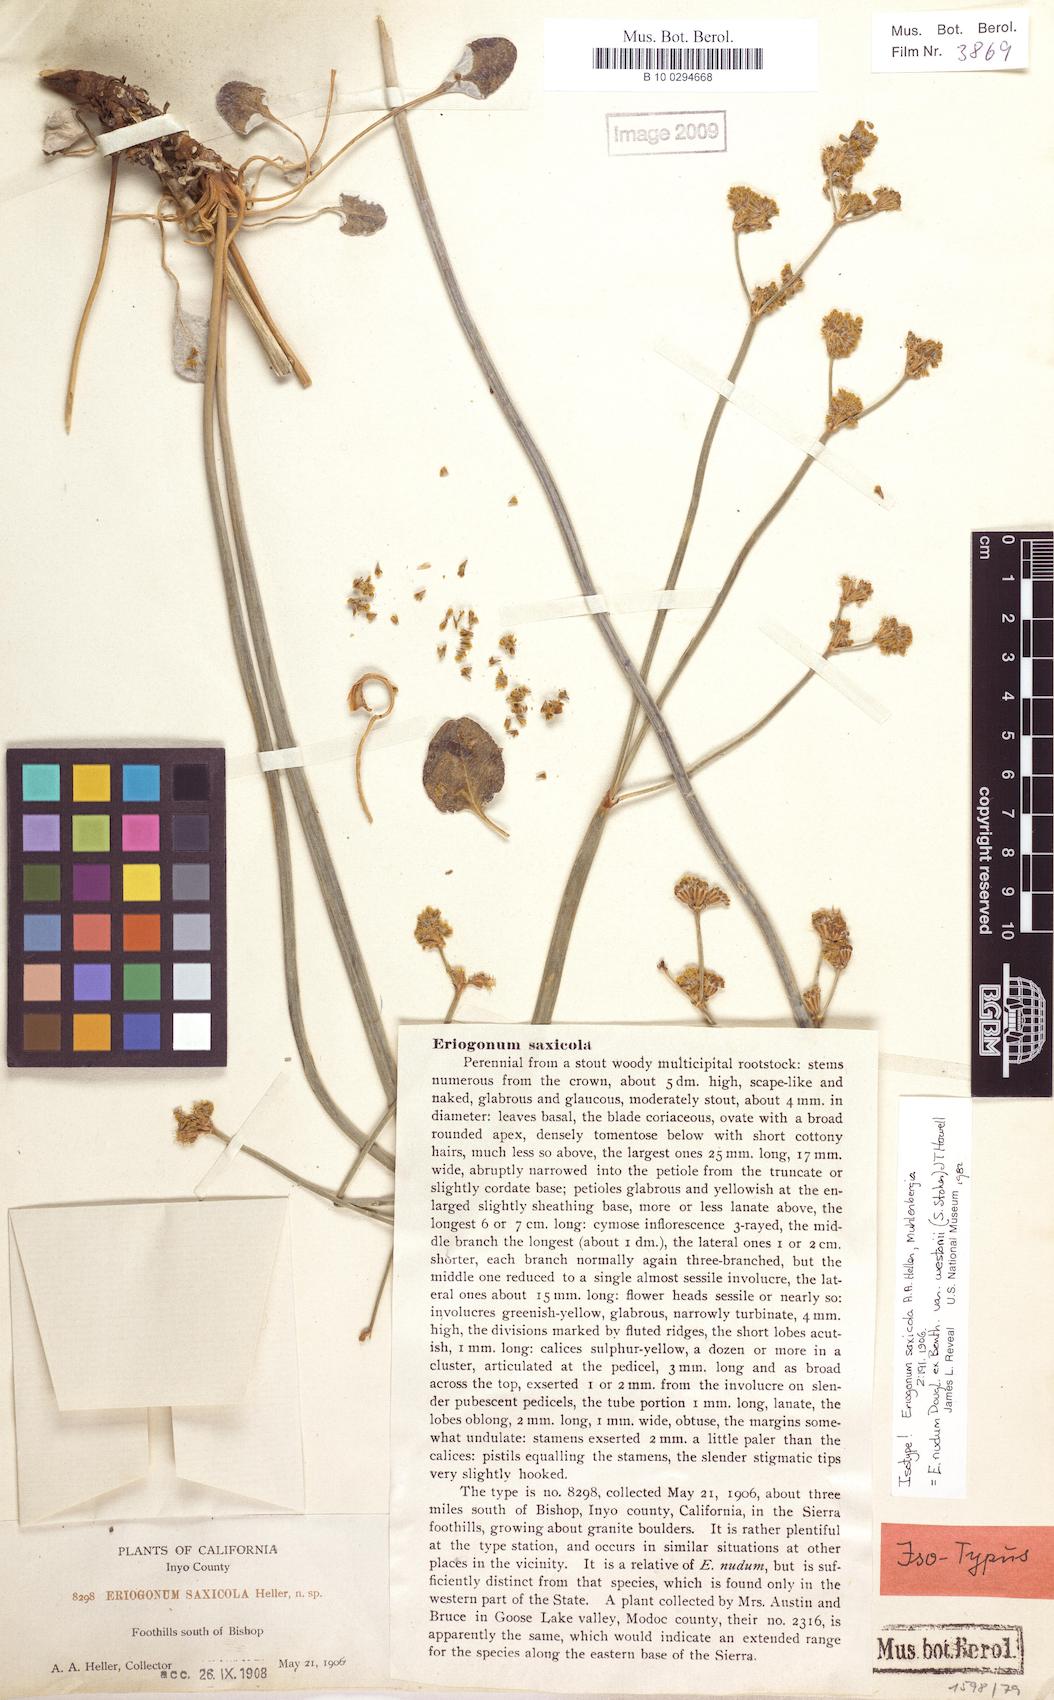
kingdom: Plantae
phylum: Tracheophyta
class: Magnoliopsida
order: Caryophyllales
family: Polygonaceae
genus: Eriogonum
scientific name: Eriogonum nudum
